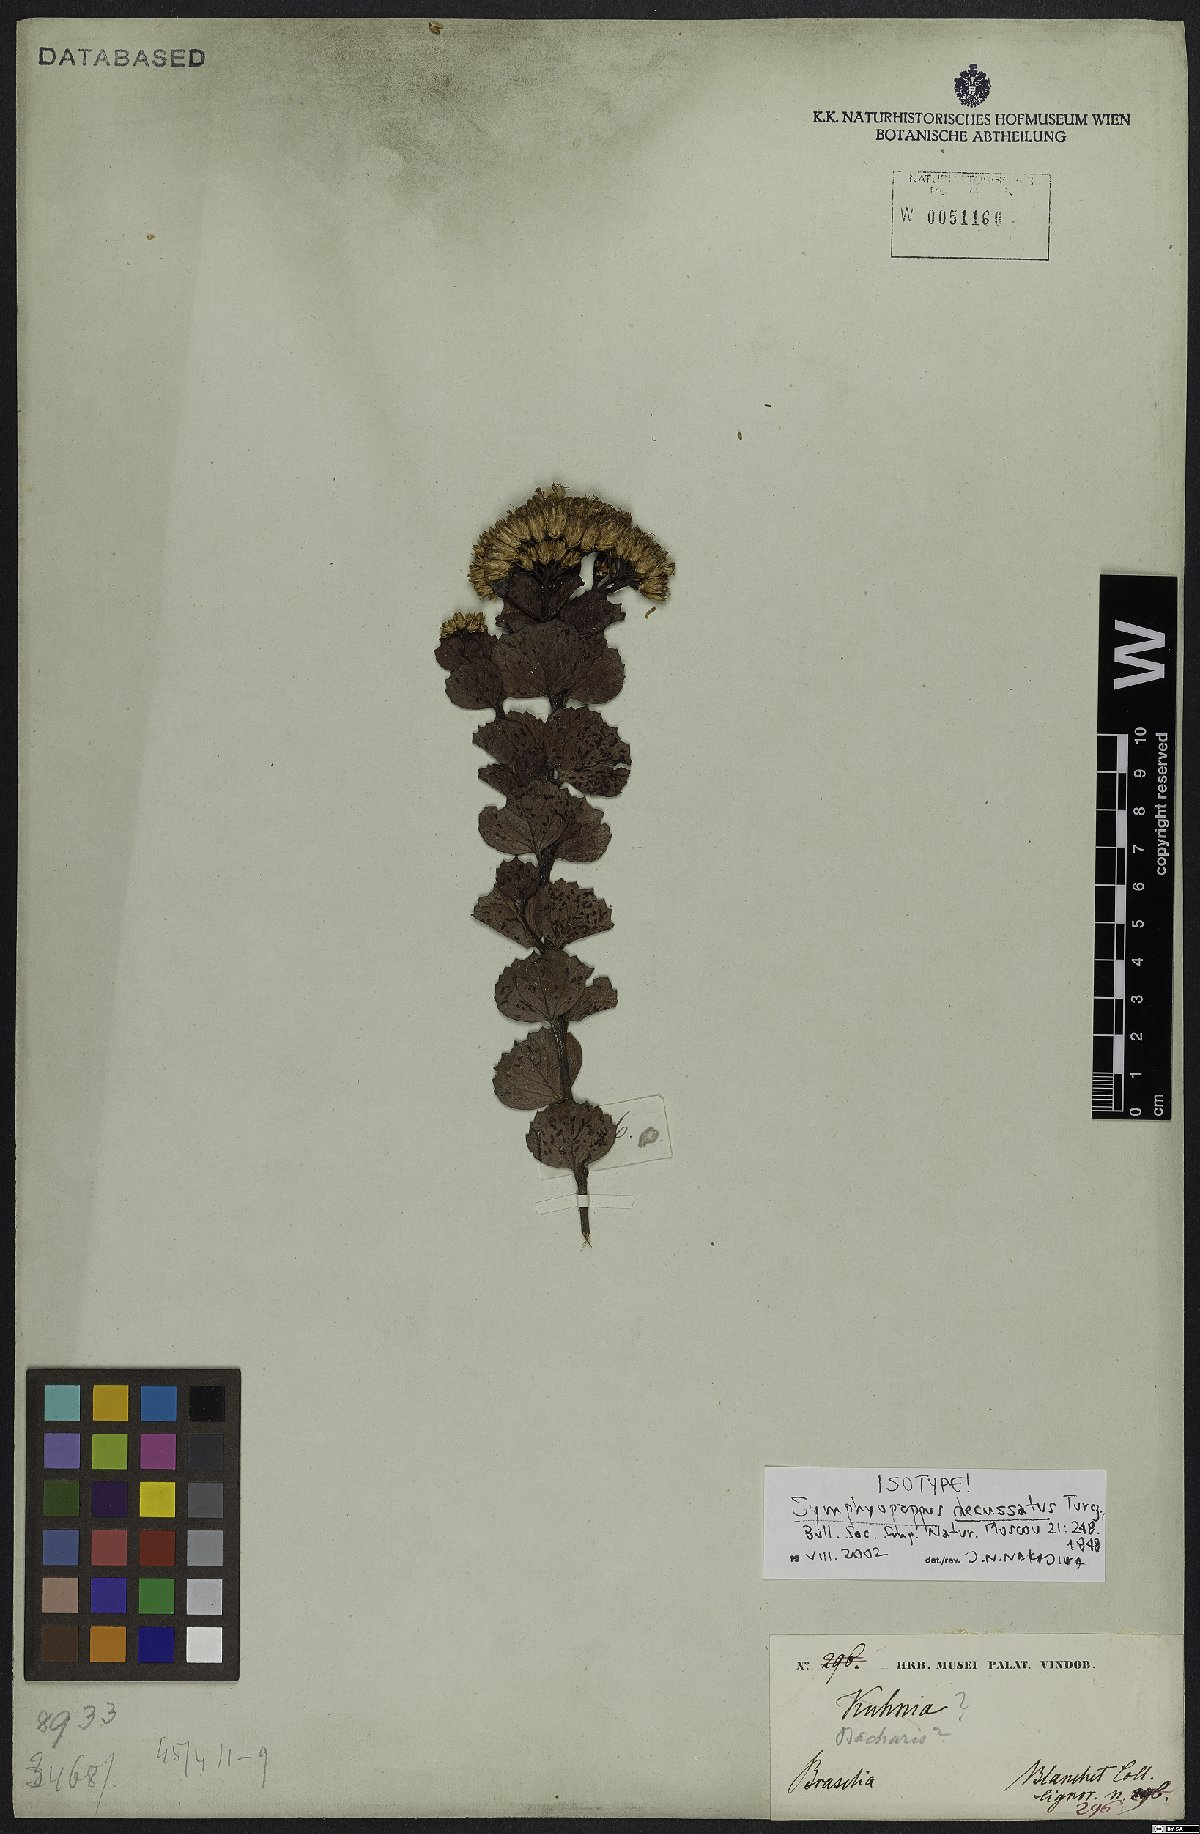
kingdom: Plantae
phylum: Tracheophyta
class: Magnoliopsida
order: Asterales
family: Asteraceae
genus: Symphyopappus
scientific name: Symphyopappus decussatus
